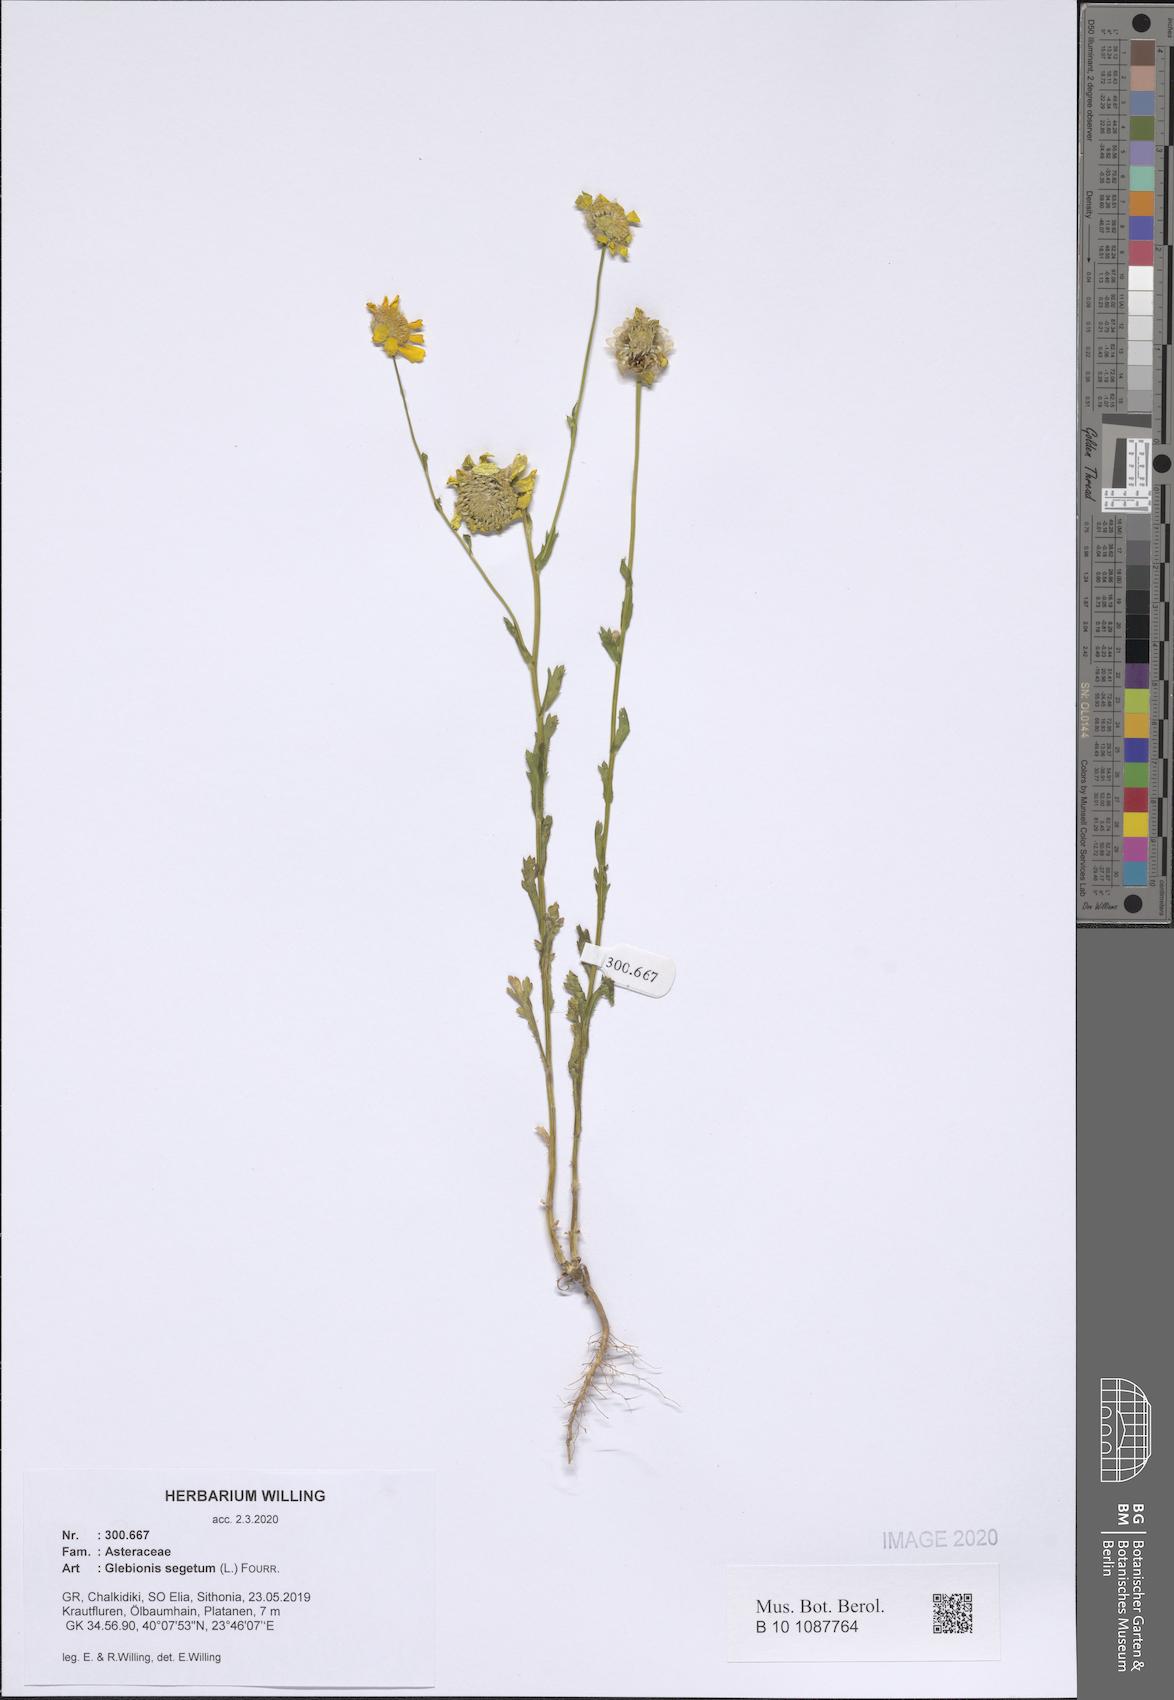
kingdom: Plantae
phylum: Tracheophyta
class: Magnoliopsida
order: Asterales
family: Asteraceae
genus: Glebionis
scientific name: Glebionis segetum
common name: Corndaisy
